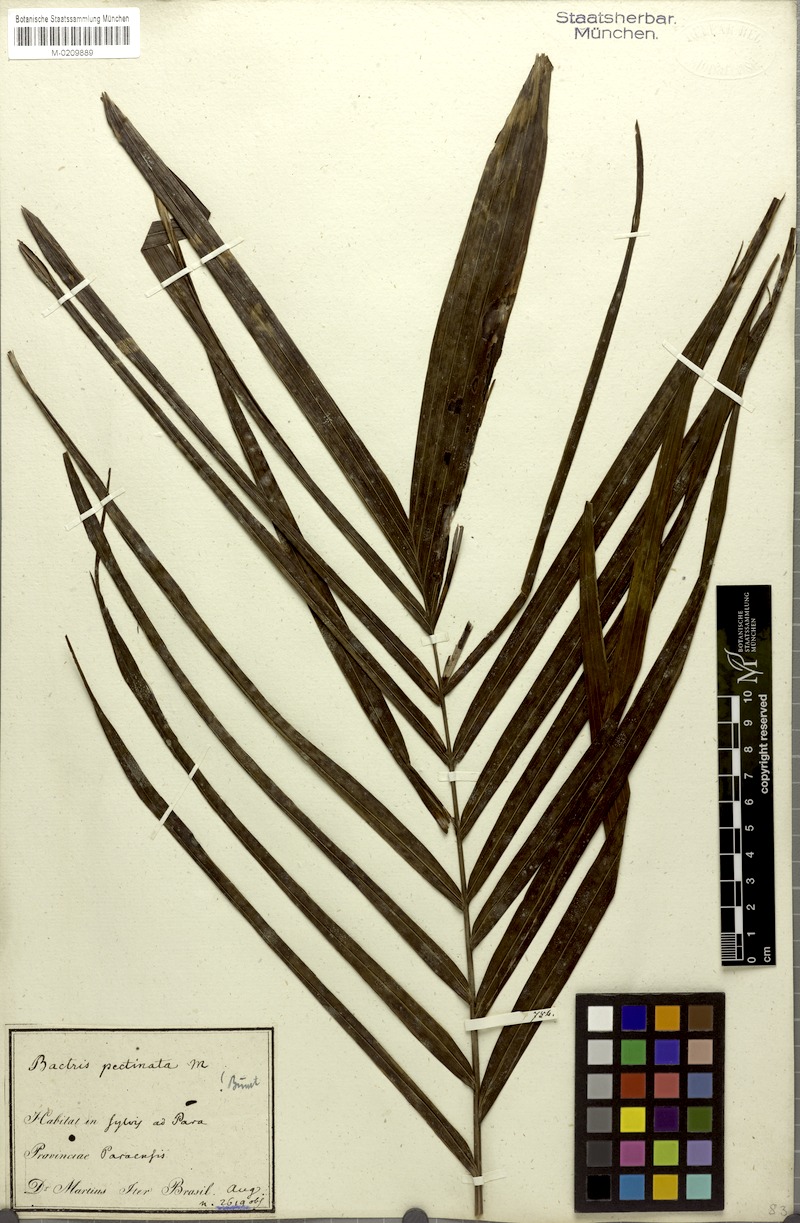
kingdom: Plantae
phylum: Tracheophyta
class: Liliopsida
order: Arecales
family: Arecaceae
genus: Bactris
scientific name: Bactris hirta
